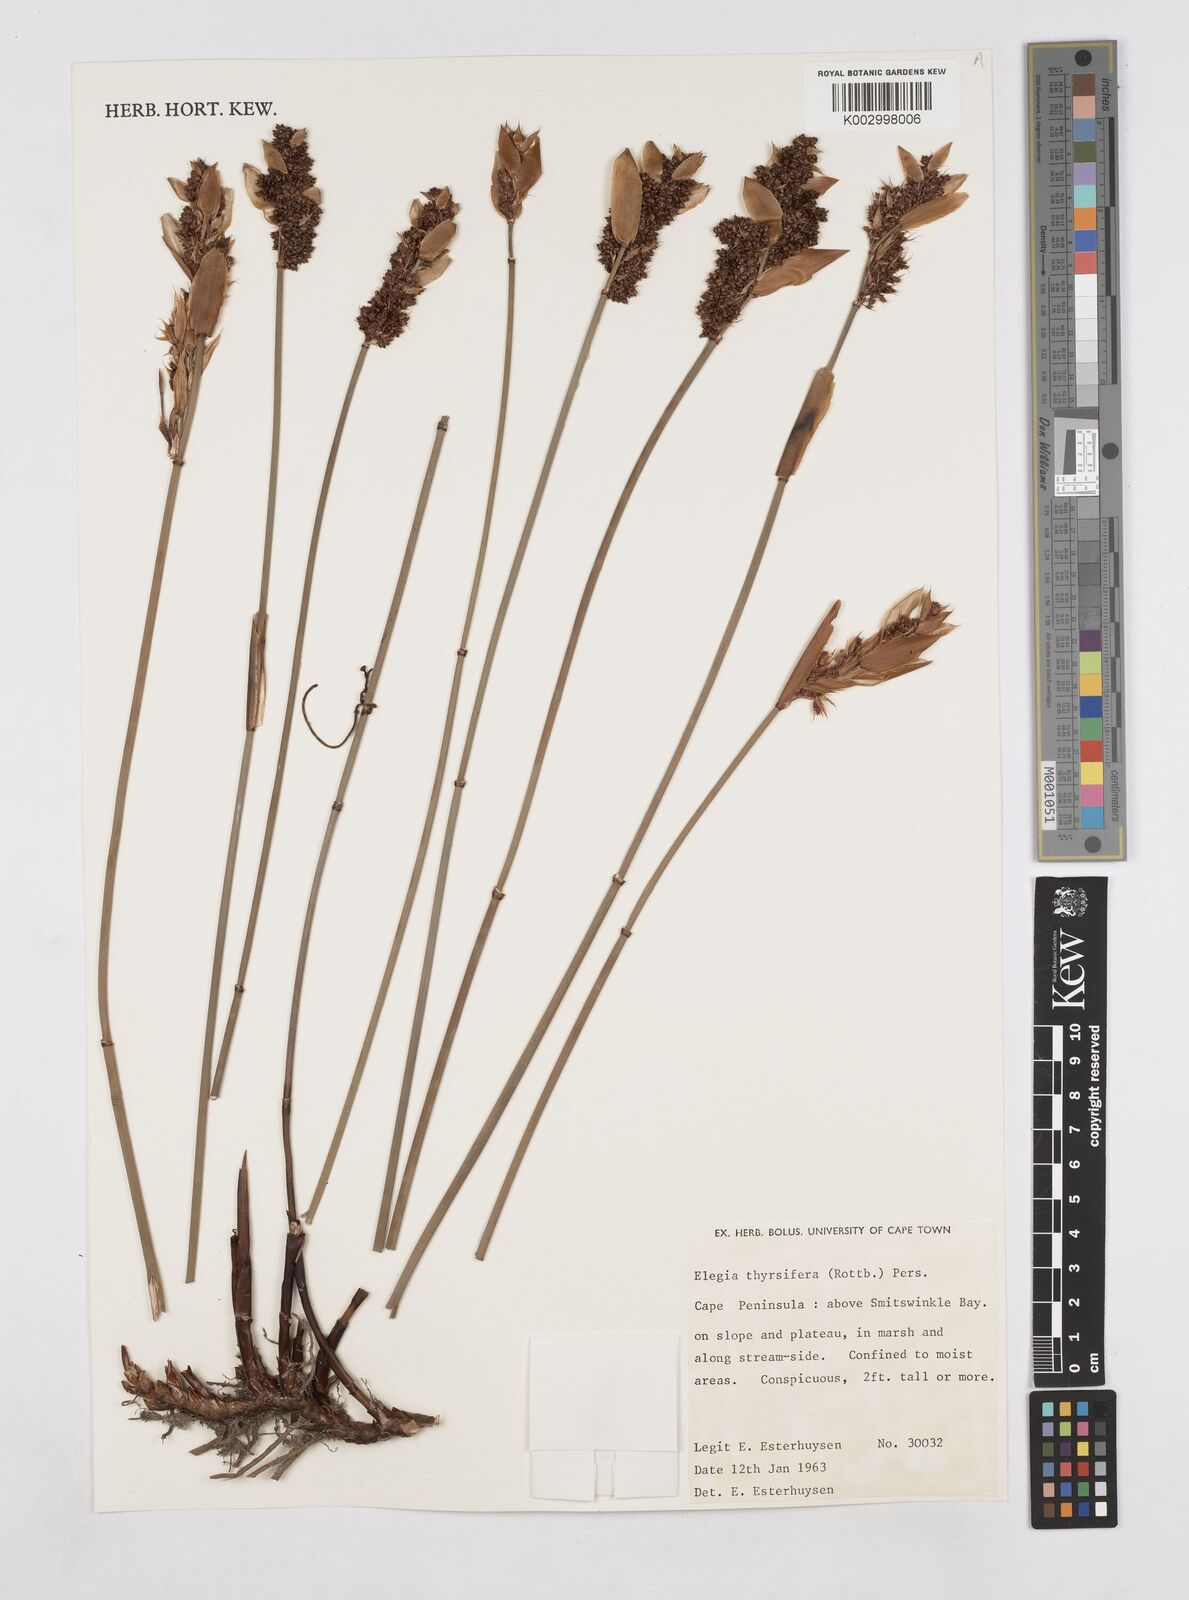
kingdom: Plantae
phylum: Tracheophyta
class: Liliopsida
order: Poales
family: Restionaceae
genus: Elegia
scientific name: Elegia thyrsifera
